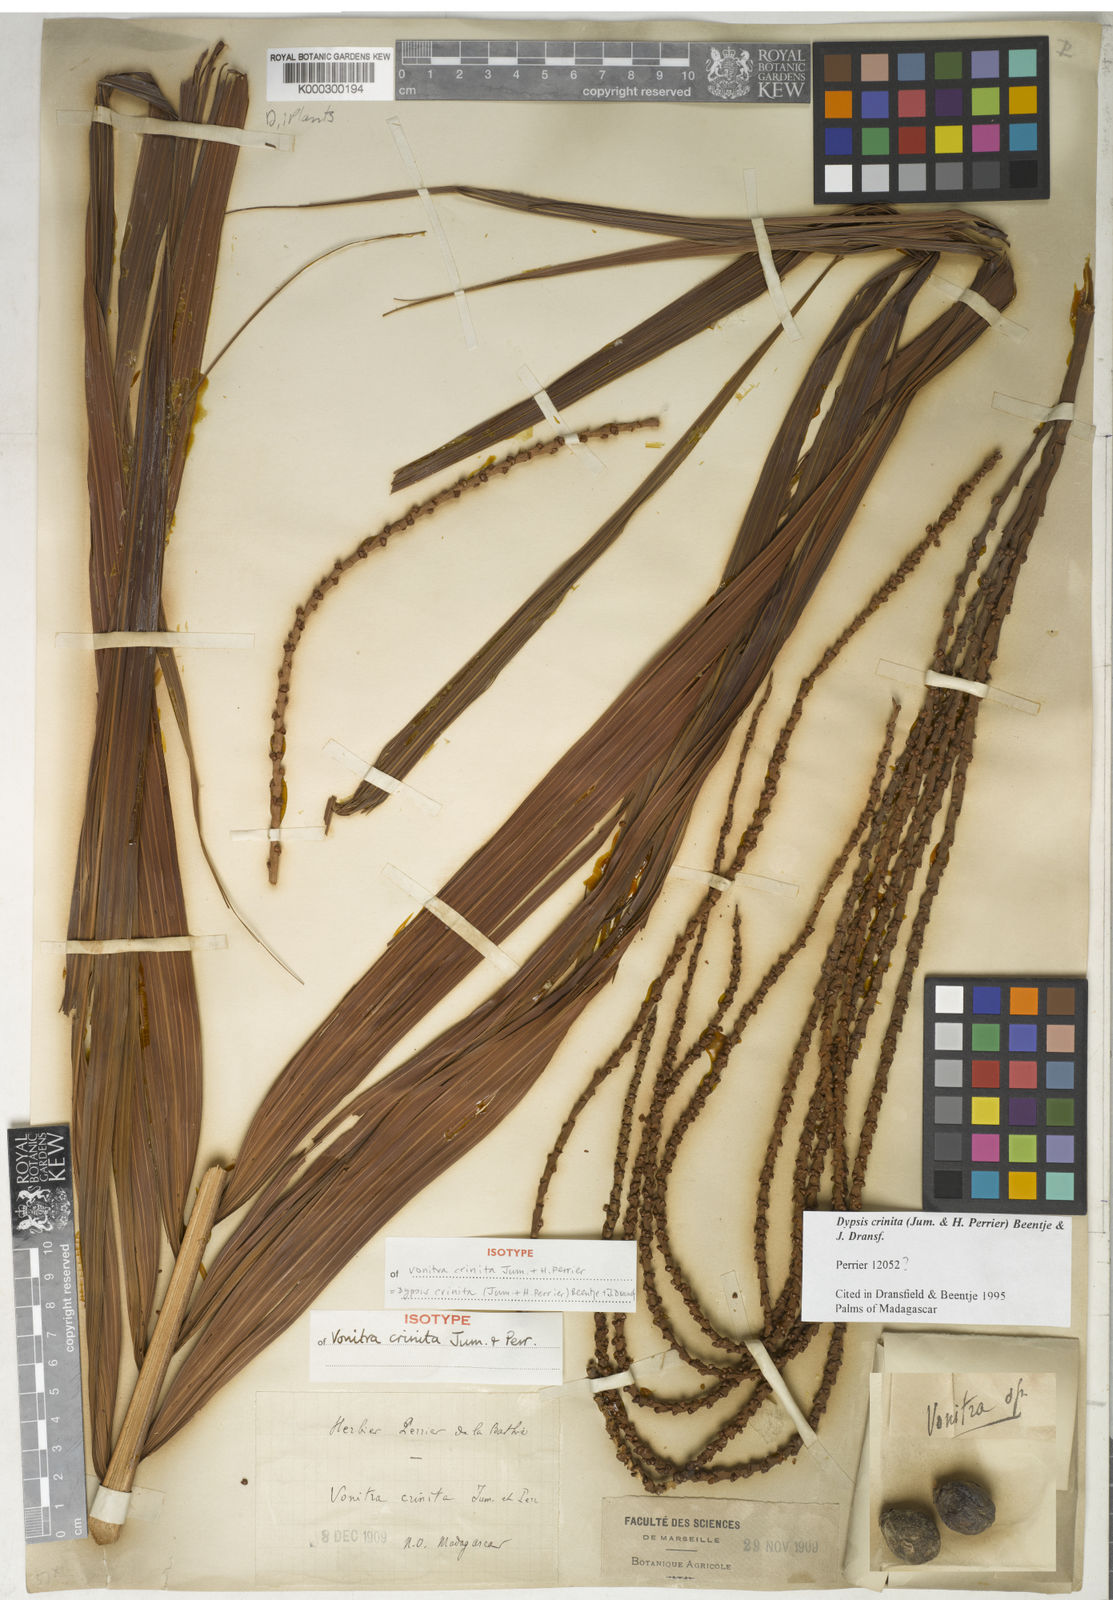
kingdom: Plantae
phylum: Tracheophyta
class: Liliopsida
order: Arecales
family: Arecaceae
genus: Dypsis
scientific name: Dypsis crinita
